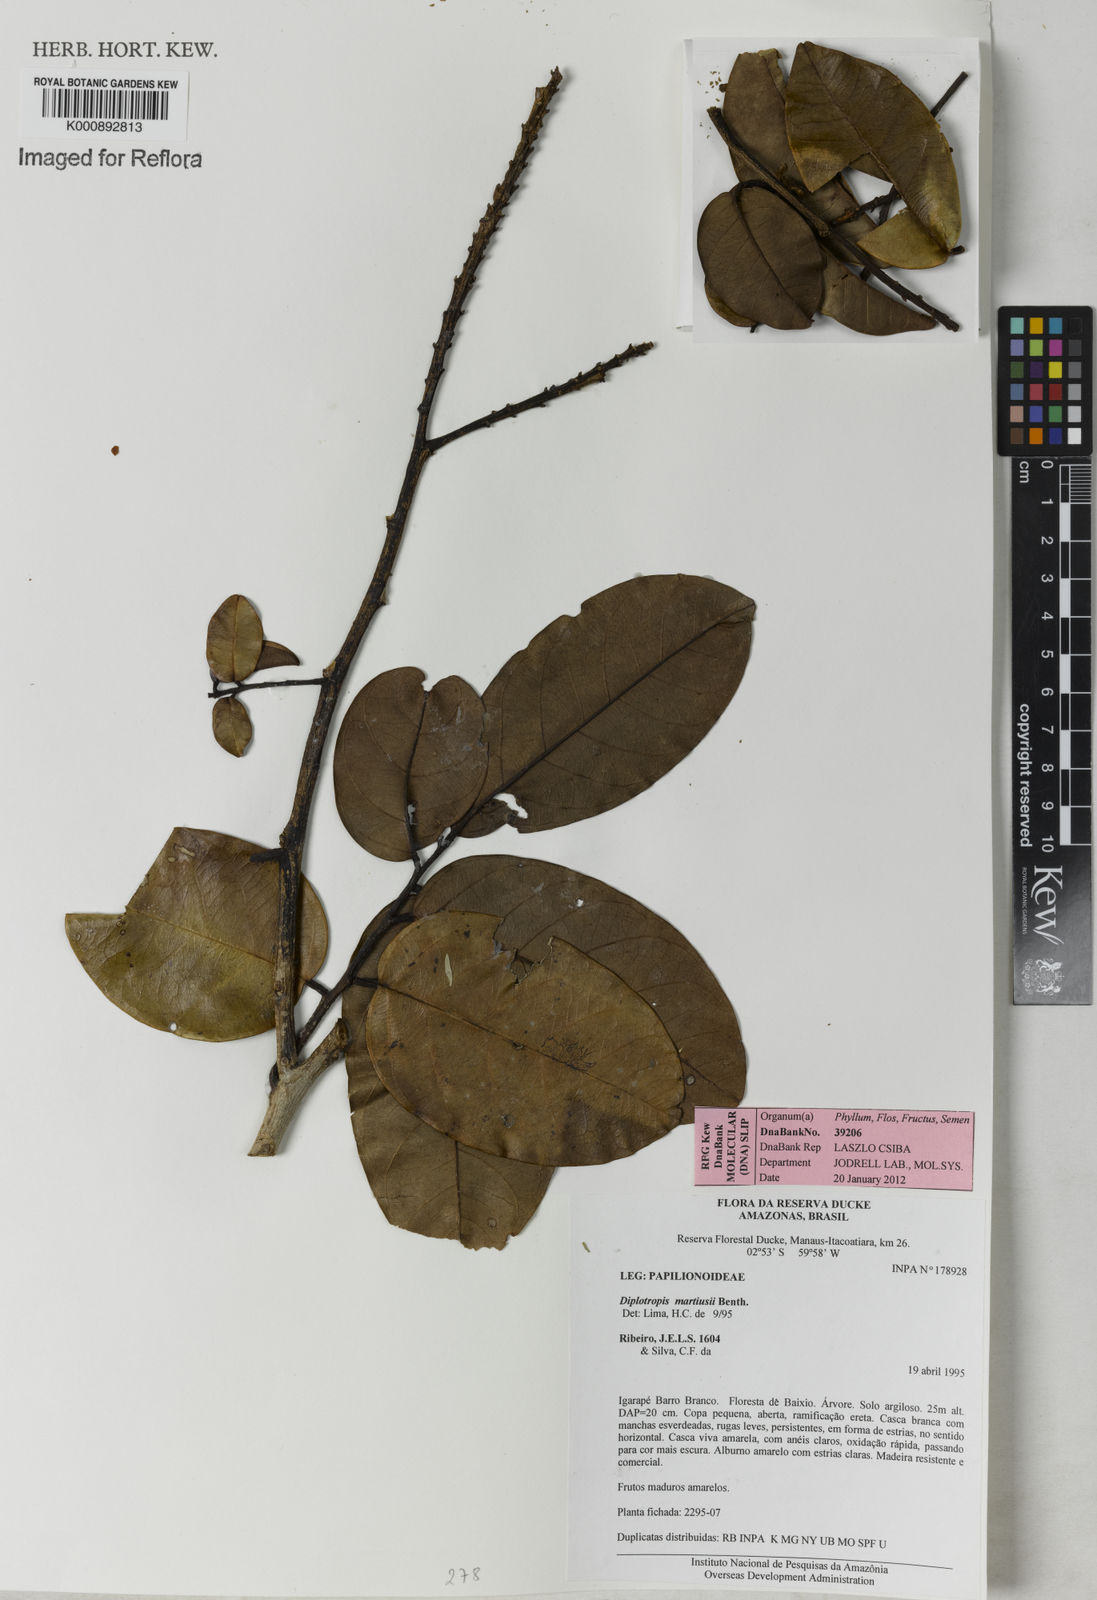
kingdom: Plantae
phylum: Tracheophyta
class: Magnoliopsida
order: Fabales
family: Fabaceae
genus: Diplotropis
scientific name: Diplotropis martiusii
